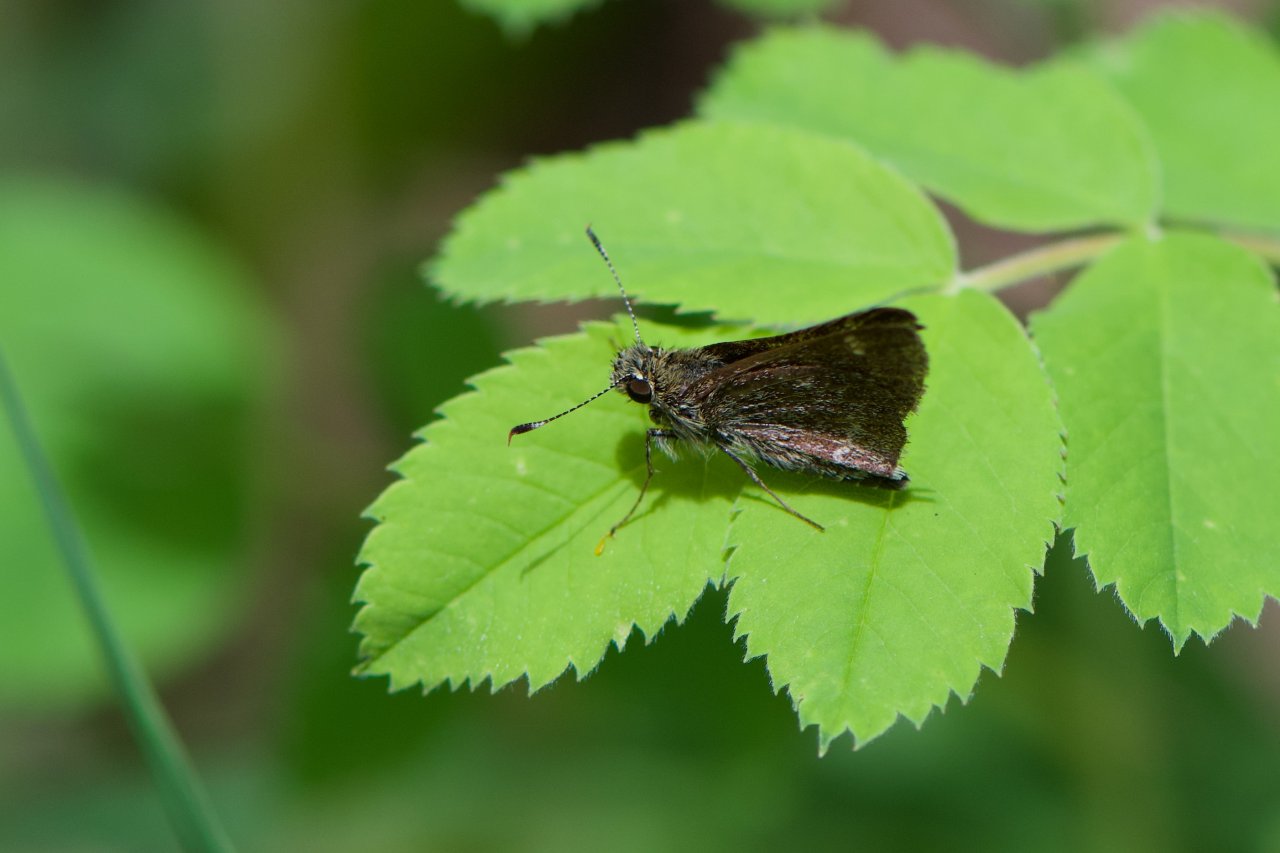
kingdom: Animalia
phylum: Arthropoda
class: Insecta
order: Lepidoptera
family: Hesperiidae
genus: Atrytonopsis
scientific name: Atrytonopsis hianna
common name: Dusted Skipper
